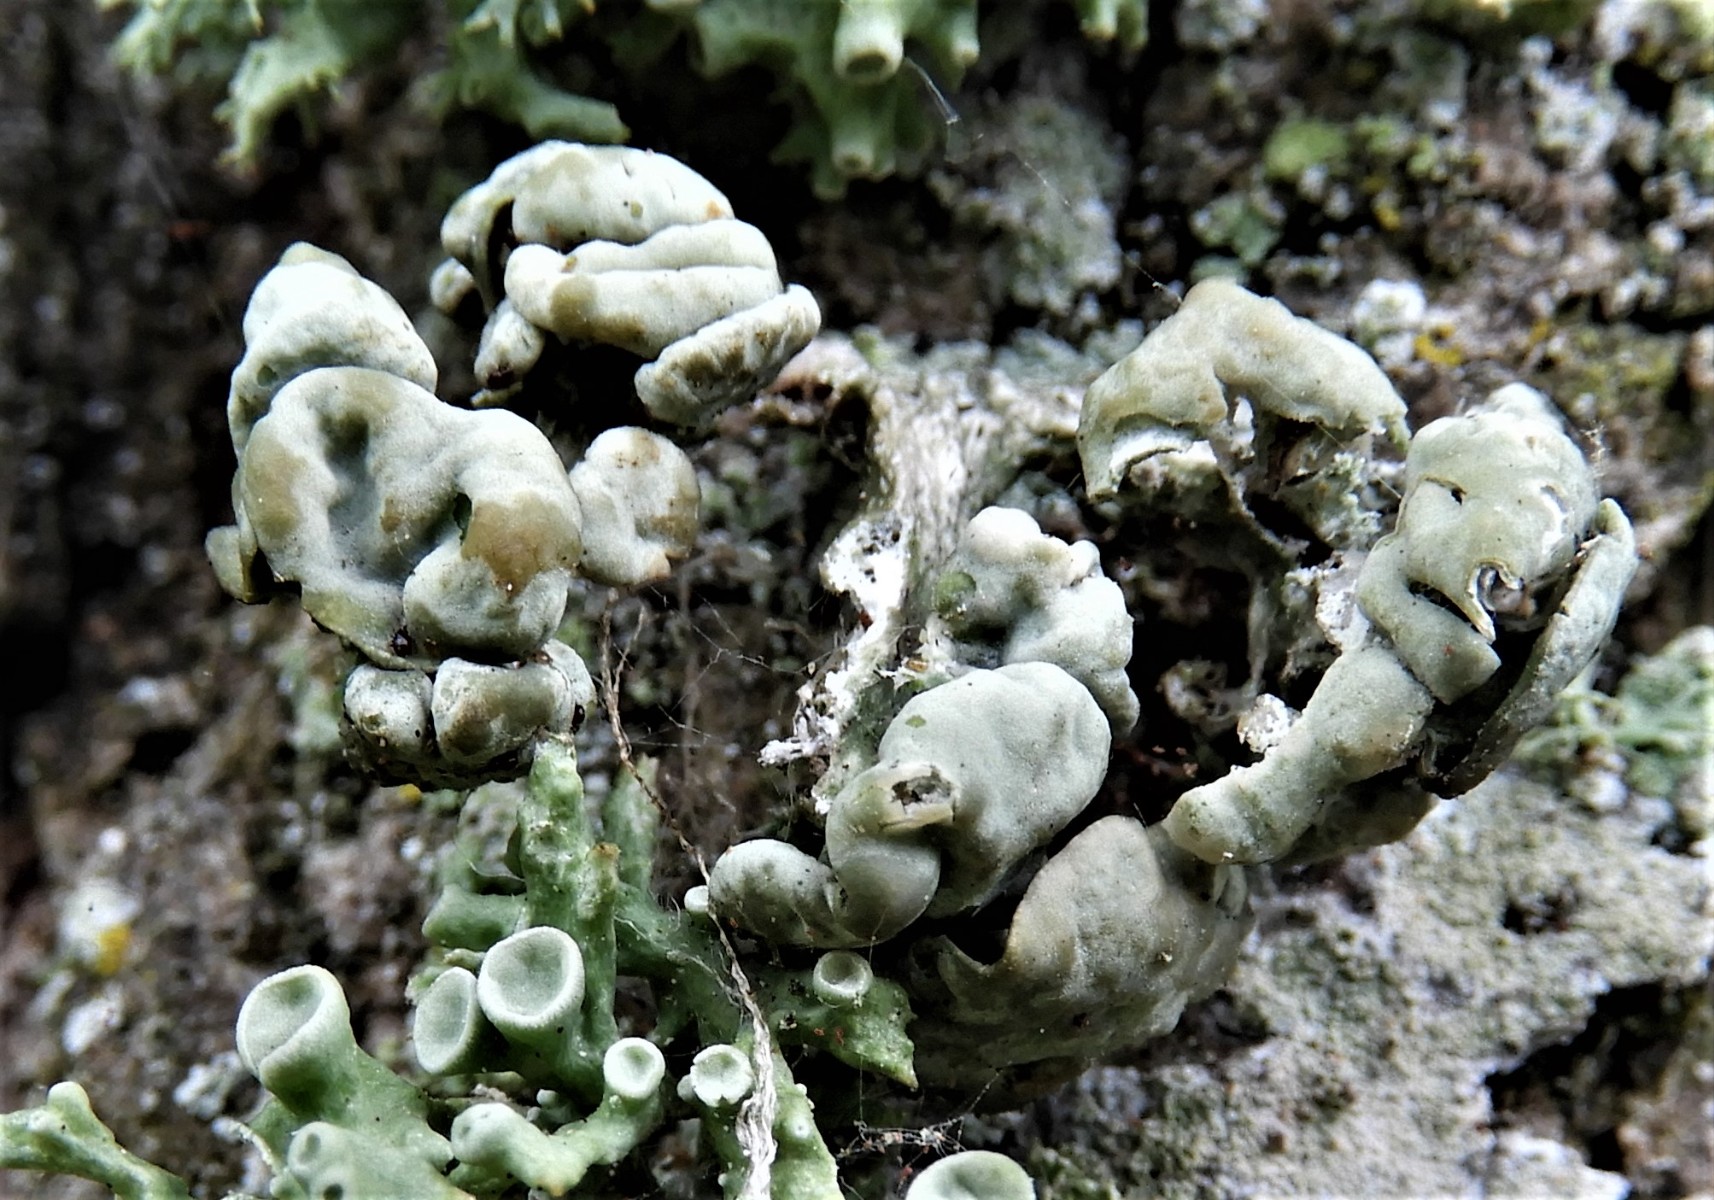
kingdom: Fungi
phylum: Ascomycota
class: Lecanoromycetes
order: Lecanorales
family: Ramalinaceae
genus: Ramalina
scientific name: Ramalina fastigiata
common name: tue-grenlav
